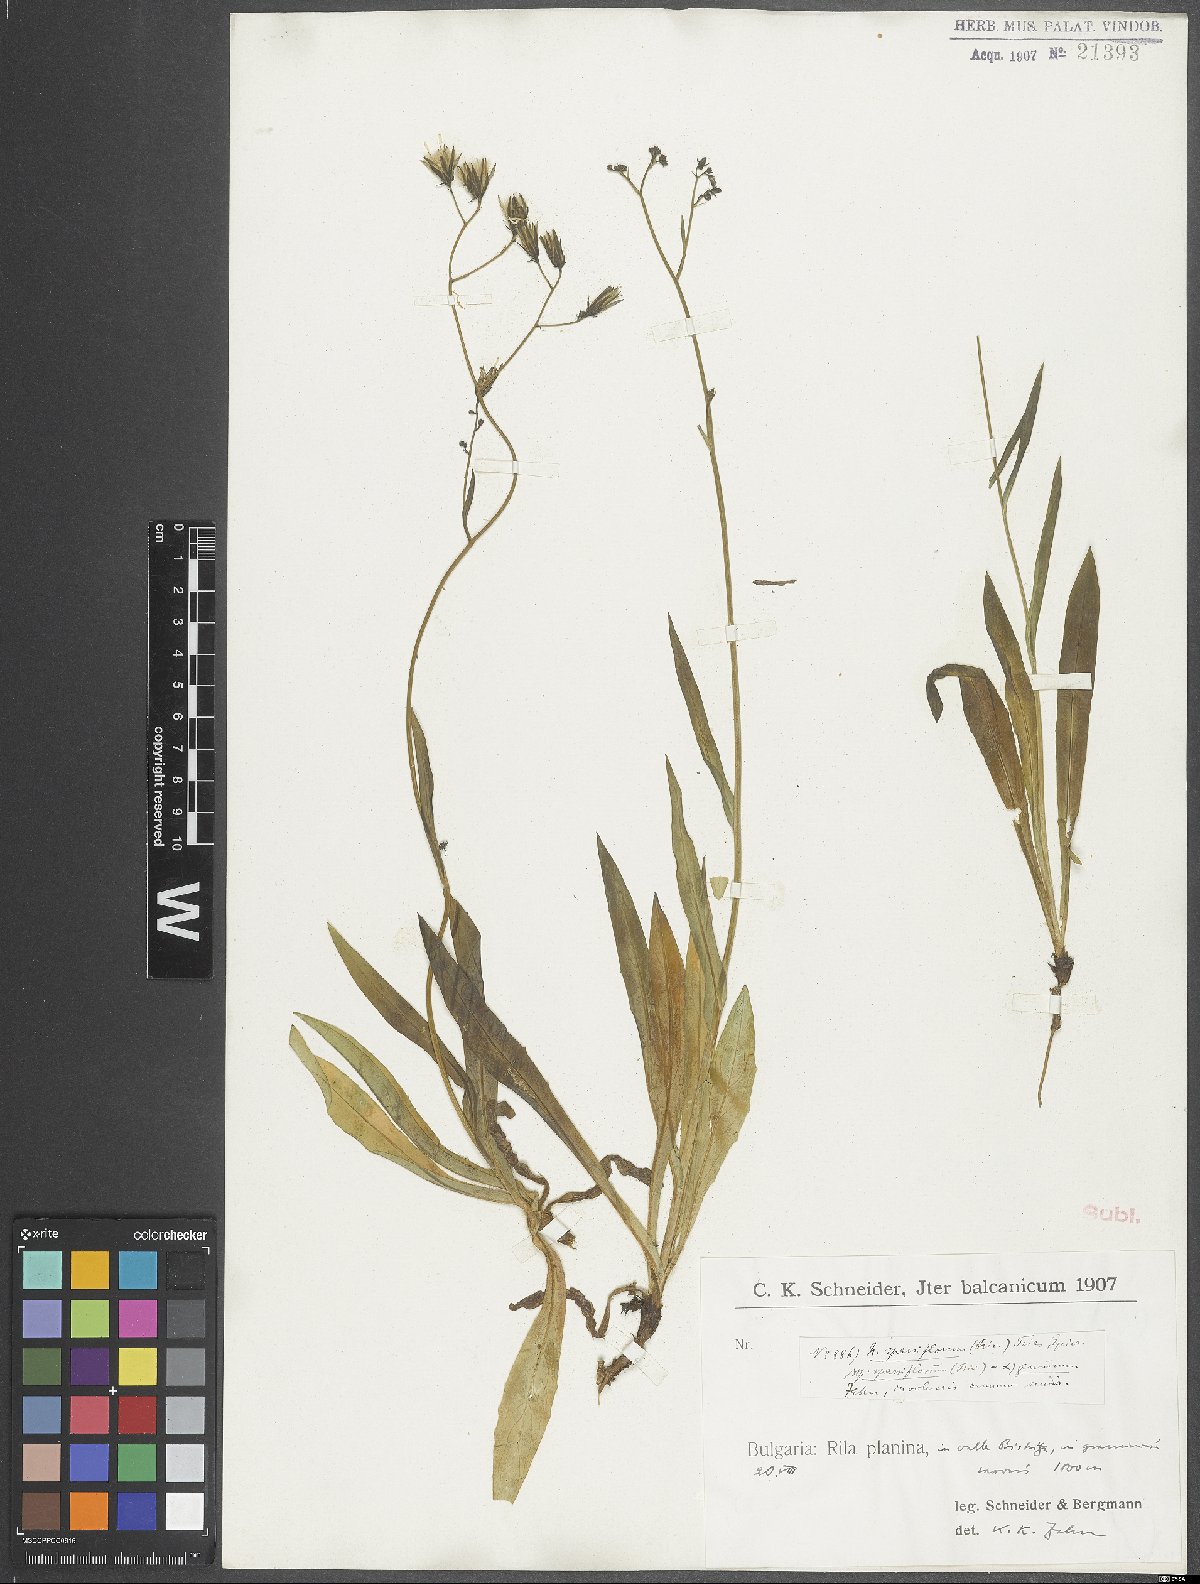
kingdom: Plantae
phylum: Tracheophyta
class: Magnoliopsida
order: Asterales
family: Asteraceae
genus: Hieracium
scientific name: Hieracium sparsum
